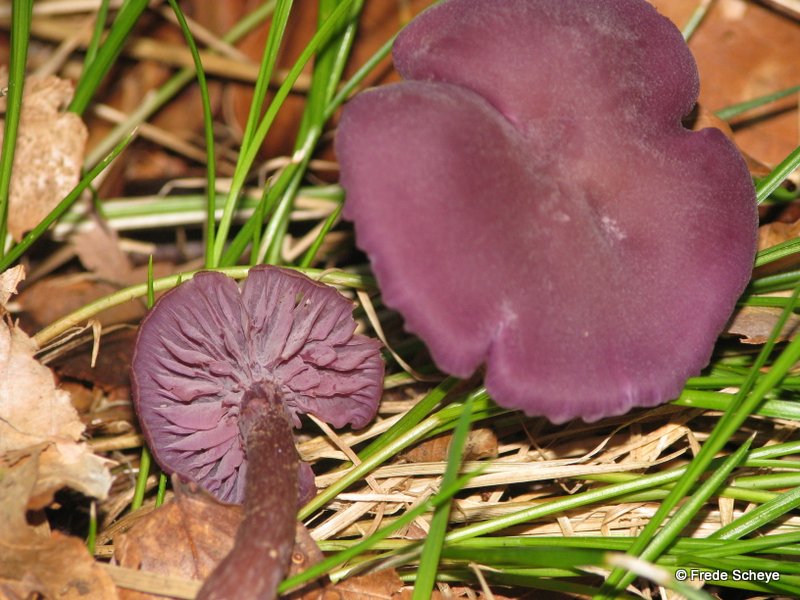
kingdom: Fungi
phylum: Basidiomycota
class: Agaricomycetes
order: Agaricales
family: Hydnangiaceae
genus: Laccaria
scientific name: Laccaria amethystina
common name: violet ametysthat
